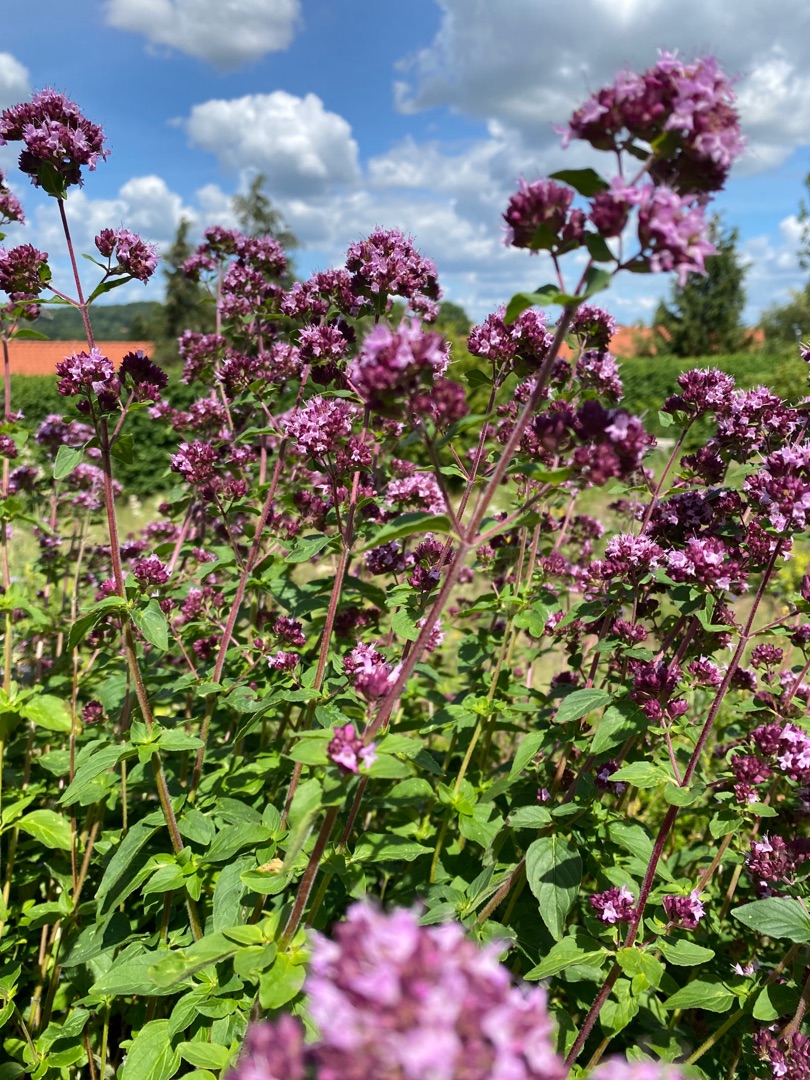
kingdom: Plantae
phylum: Tracheophyta
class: Magnoliopsida
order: Lamiales
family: Lamiaceae
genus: Origanum
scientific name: Origanum vulgare
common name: Merian
